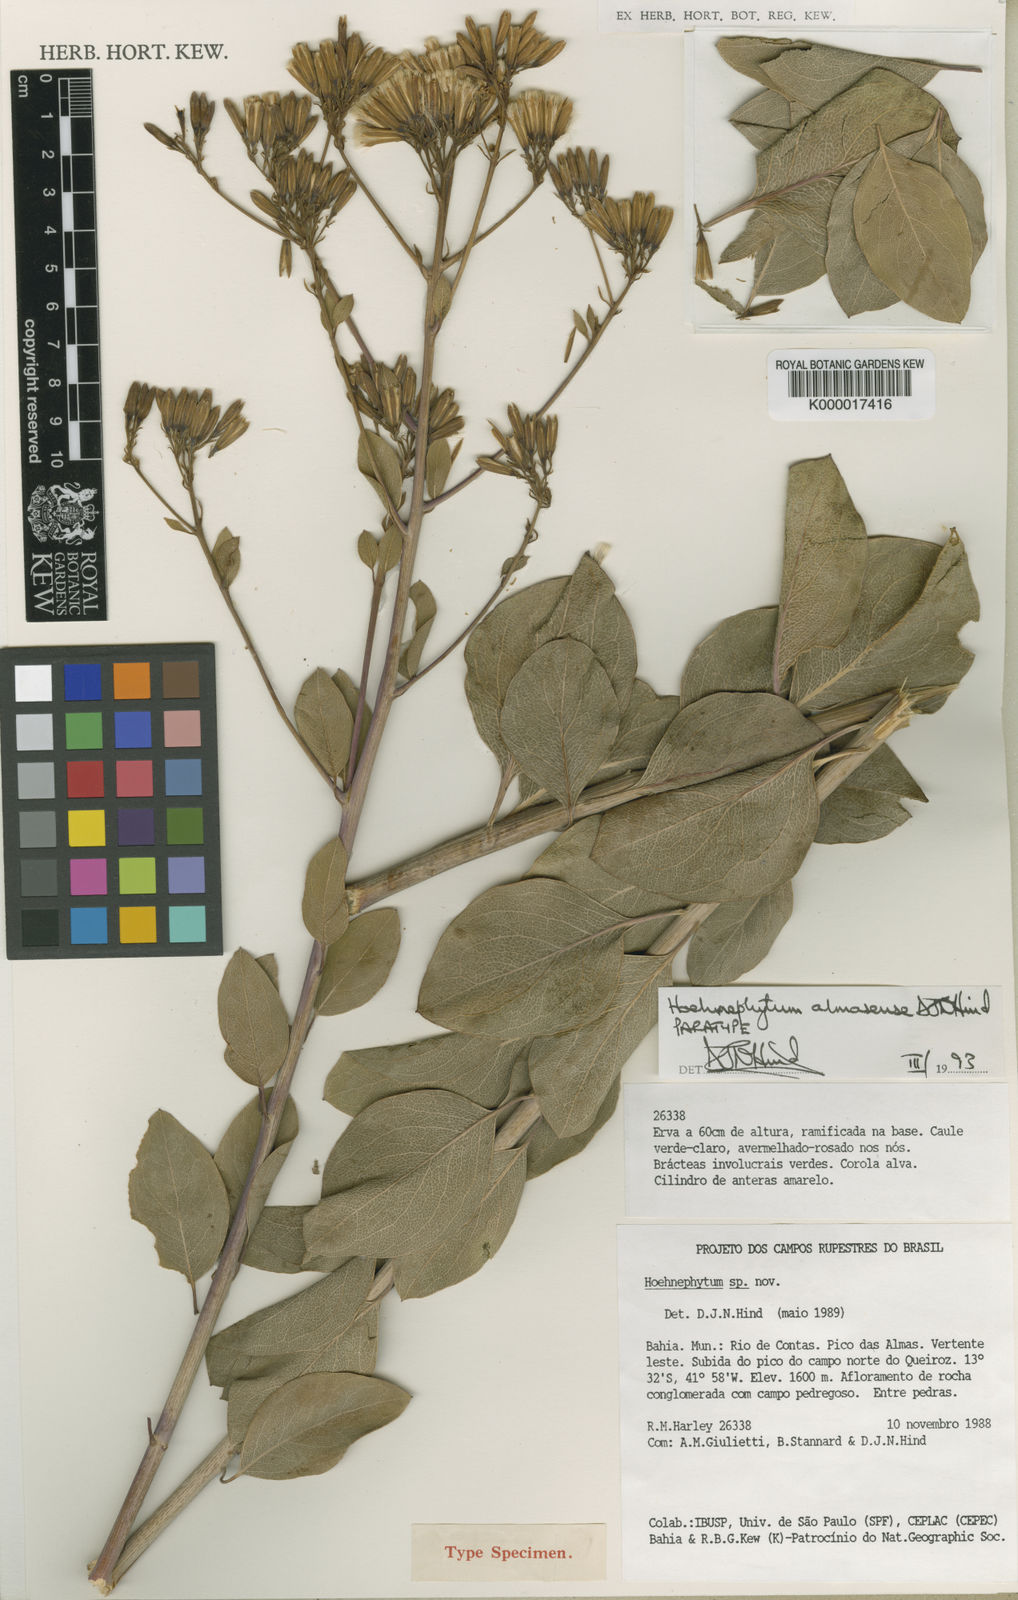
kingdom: Plantae
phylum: Tracheophyta
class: Magnoliopsida
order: Asterales
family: Asteraceae
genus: Hoehnephytum
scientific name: Hoehnephytum almasense
